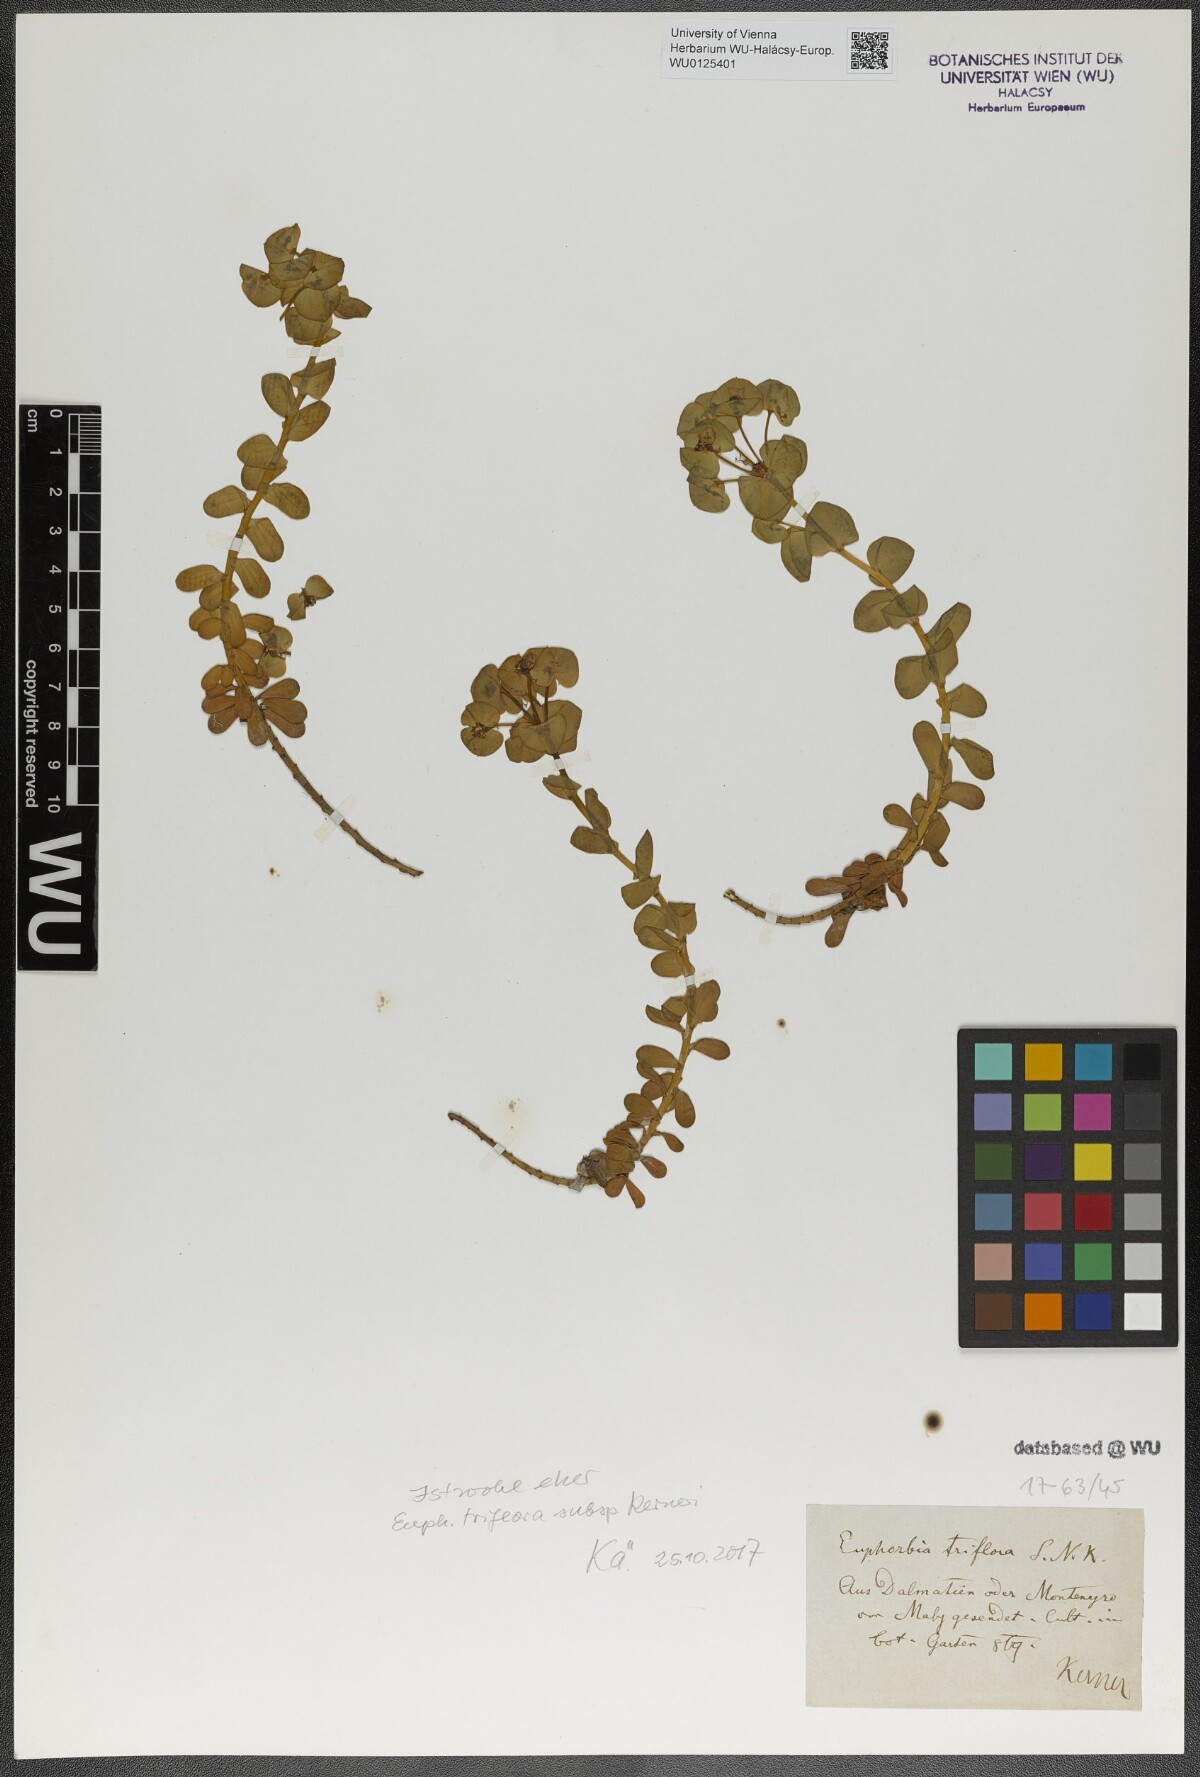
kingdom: Plantae
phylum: Tracheophyta
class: Magnoliopsida
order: Malpighiales
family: Euphorbiaceae
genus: Euphorbia
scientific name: Euphorbia kerneri
